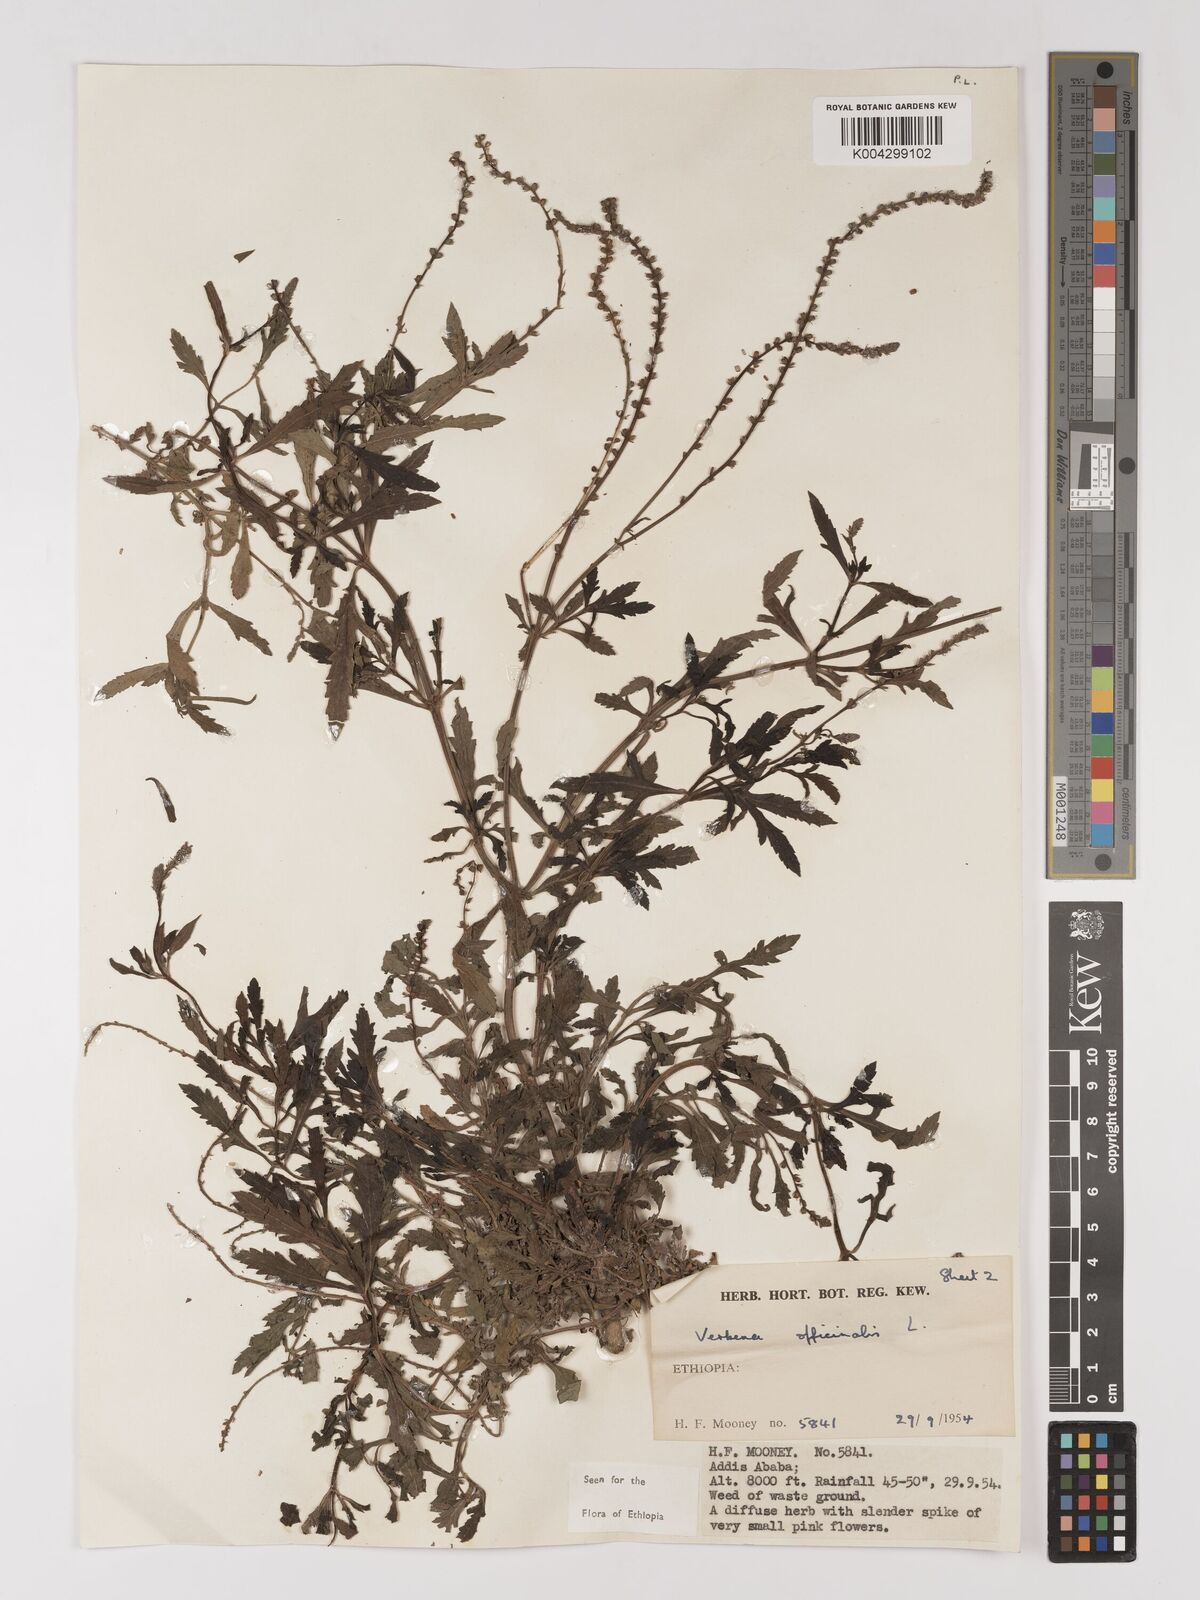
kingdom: Plantae
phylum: Tracheophyta
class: Magnoliopsida
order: Lamiales
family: Verbenaceae
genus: Verbena
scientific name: Verbena officinalis
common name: Vervain
